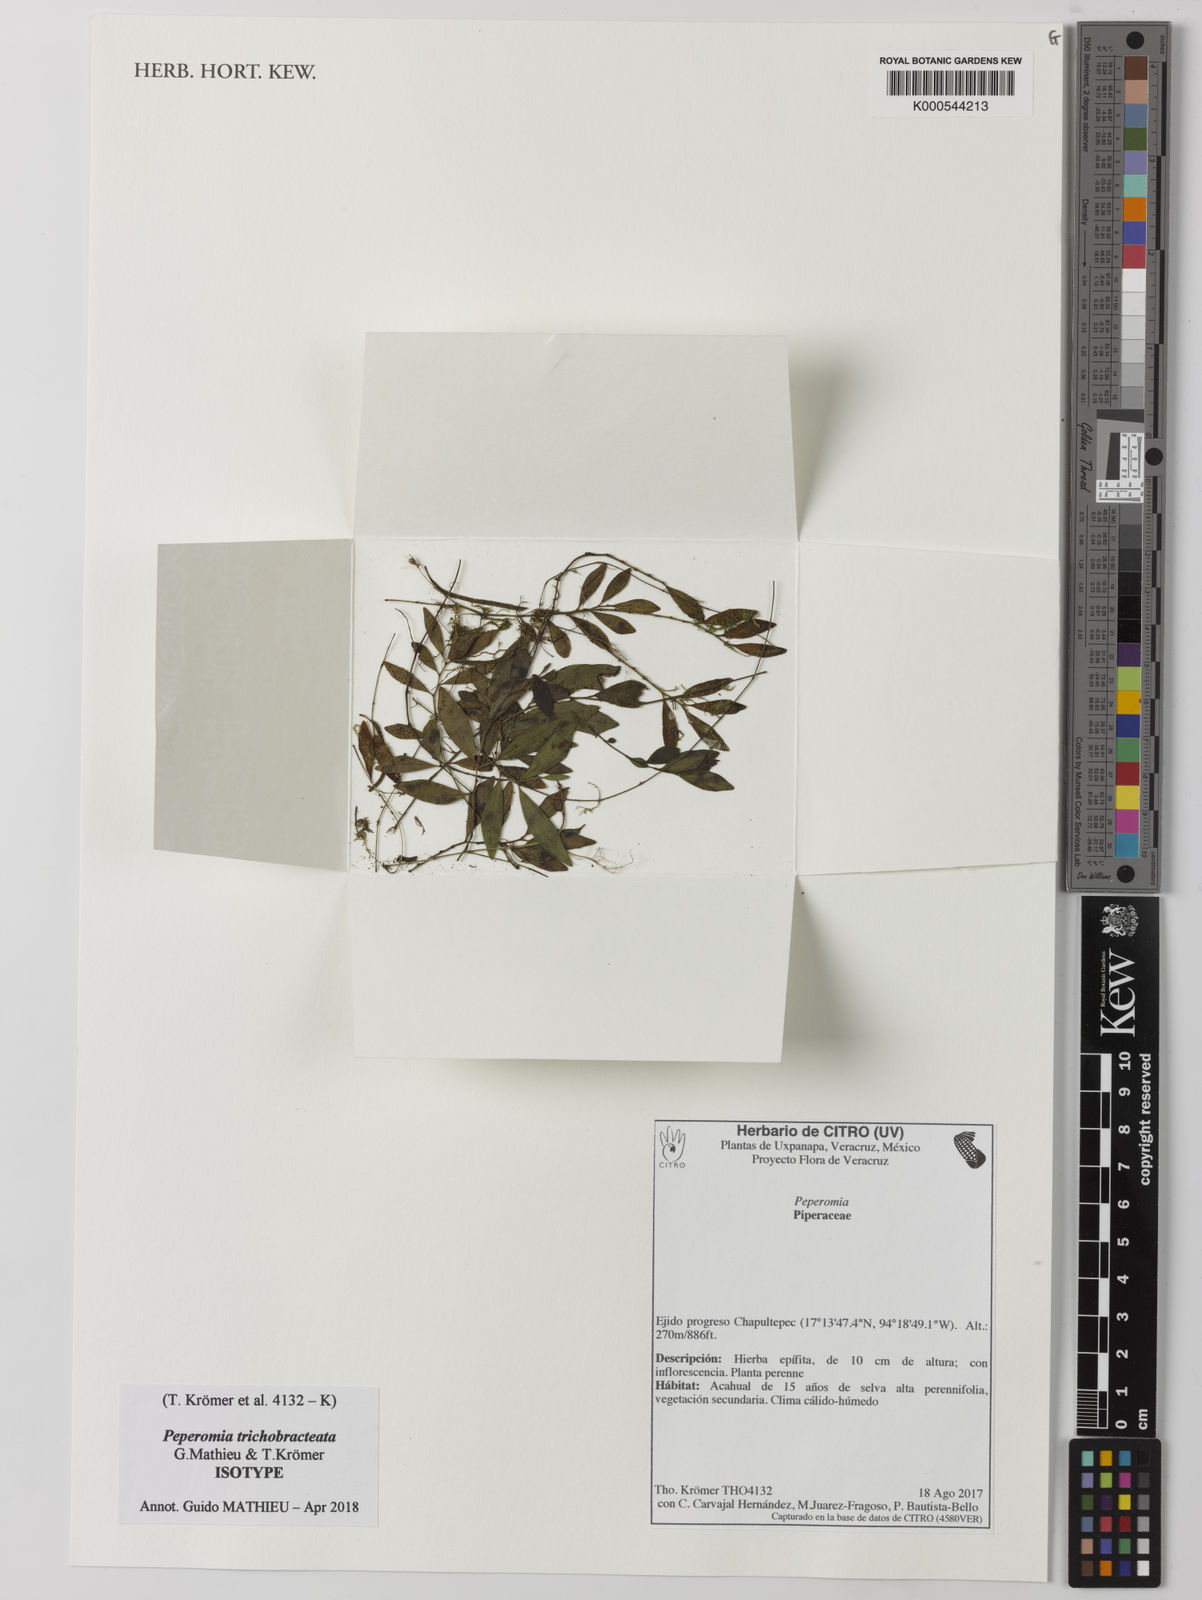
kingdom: Plantae
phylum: Tracheophyta
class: Magnoliopsida
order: Piperales
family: Piperaceae
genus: Peperomia
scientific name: Peperomia
